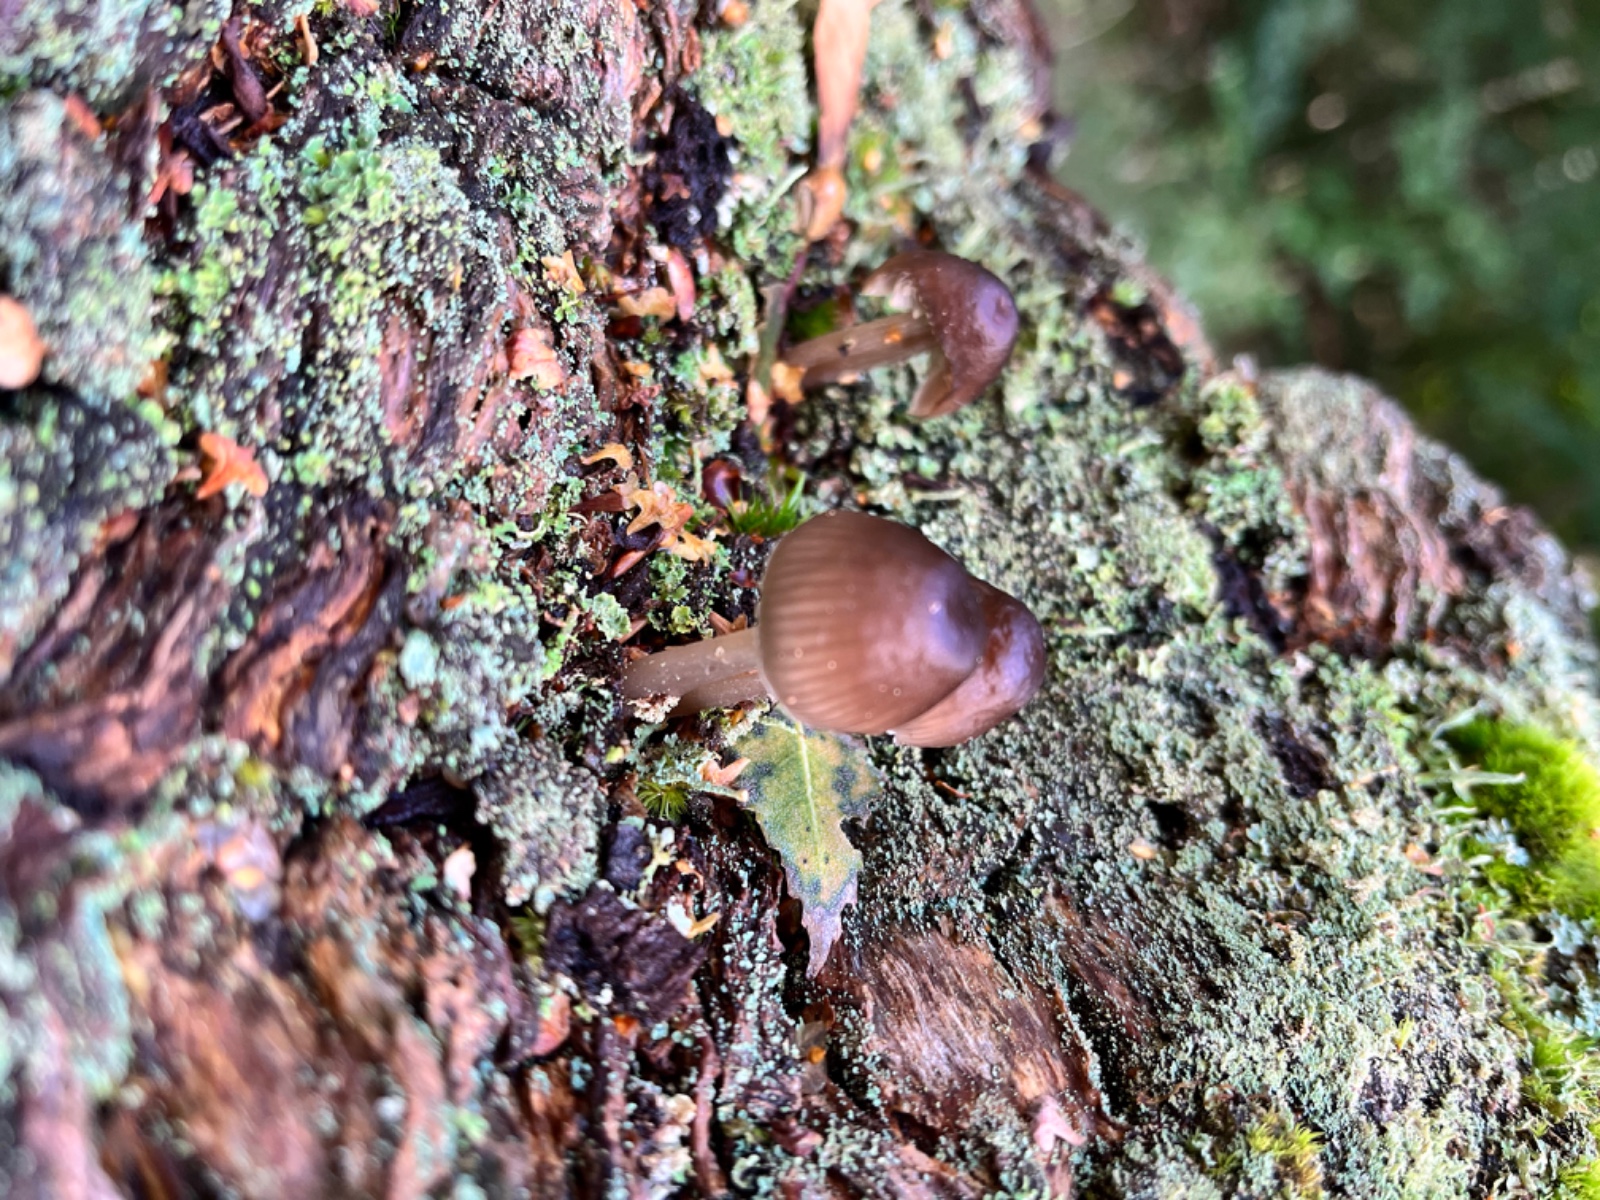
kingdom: Fungi
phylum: Basidiomycota
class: Agaricomycetes
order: Agaricales
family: Mycenaceae
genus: Mycena
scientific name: Mycena
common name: huesvamp
